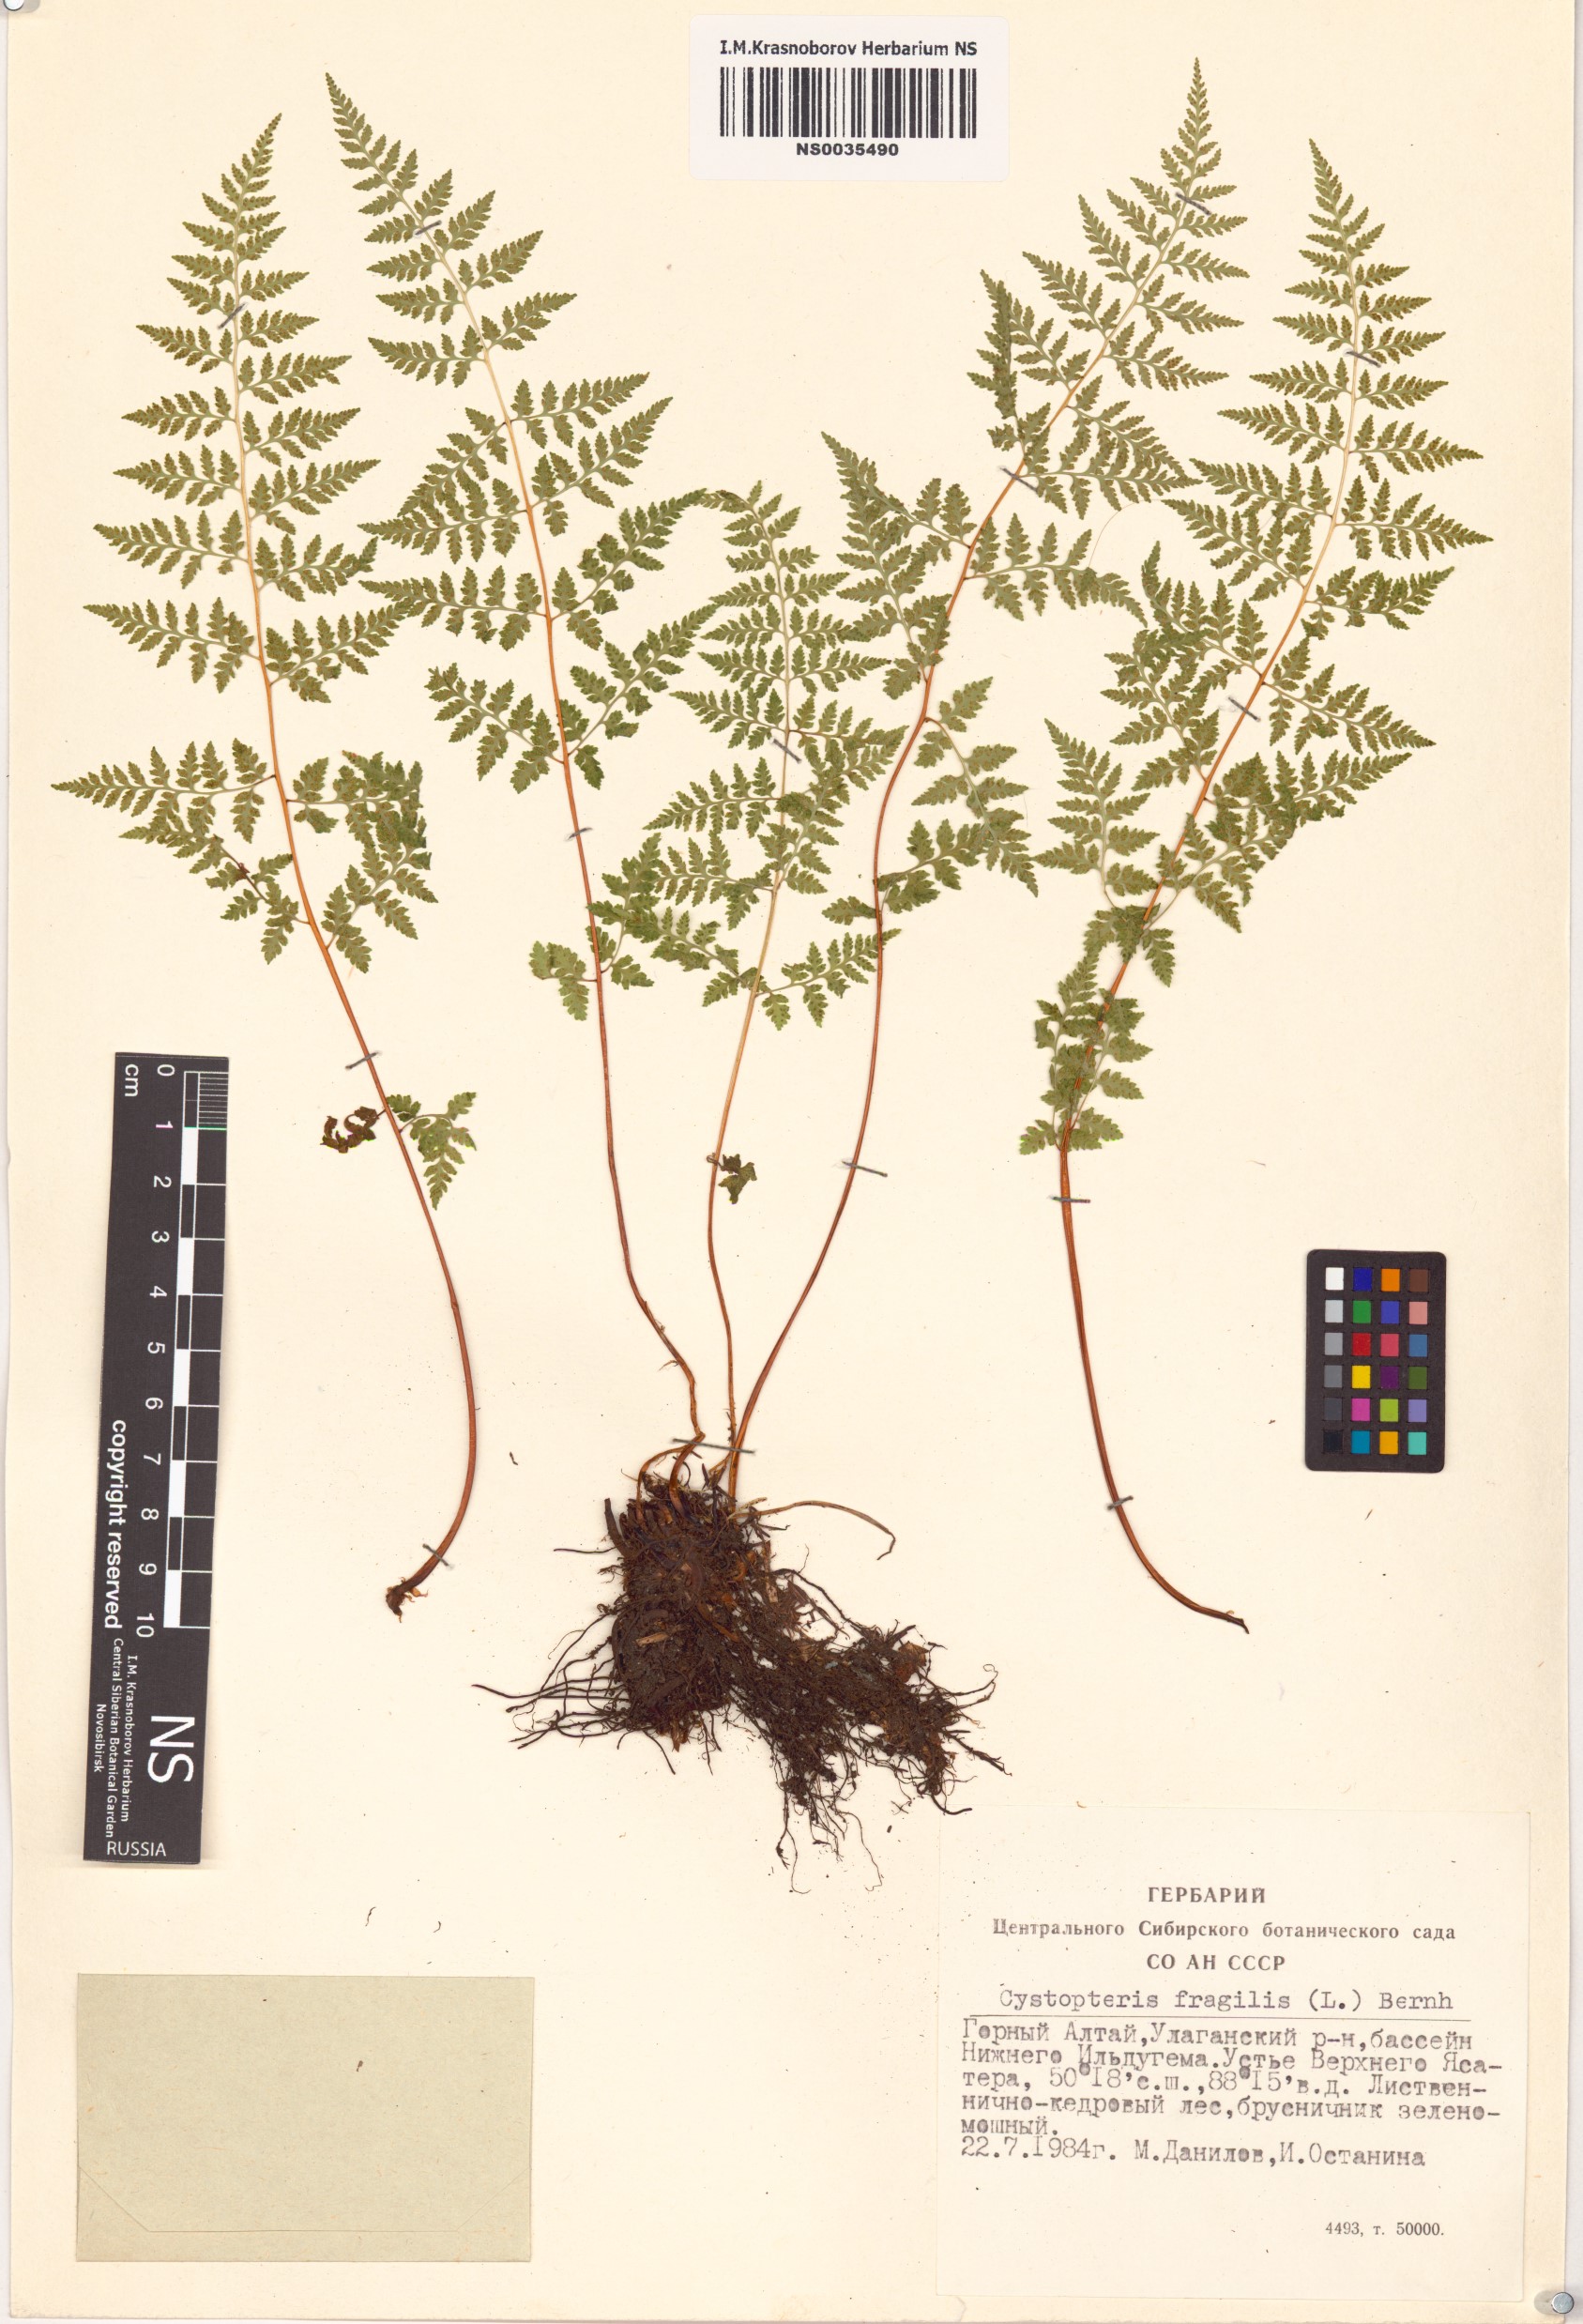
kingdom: Plantae
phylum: Tracheophyta
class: Polypodiopsida
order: Polypodiales
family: Cystopteridaceae
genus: Cystopteris
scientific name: Cystopteris fragilis
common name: Brittle bladder fern
